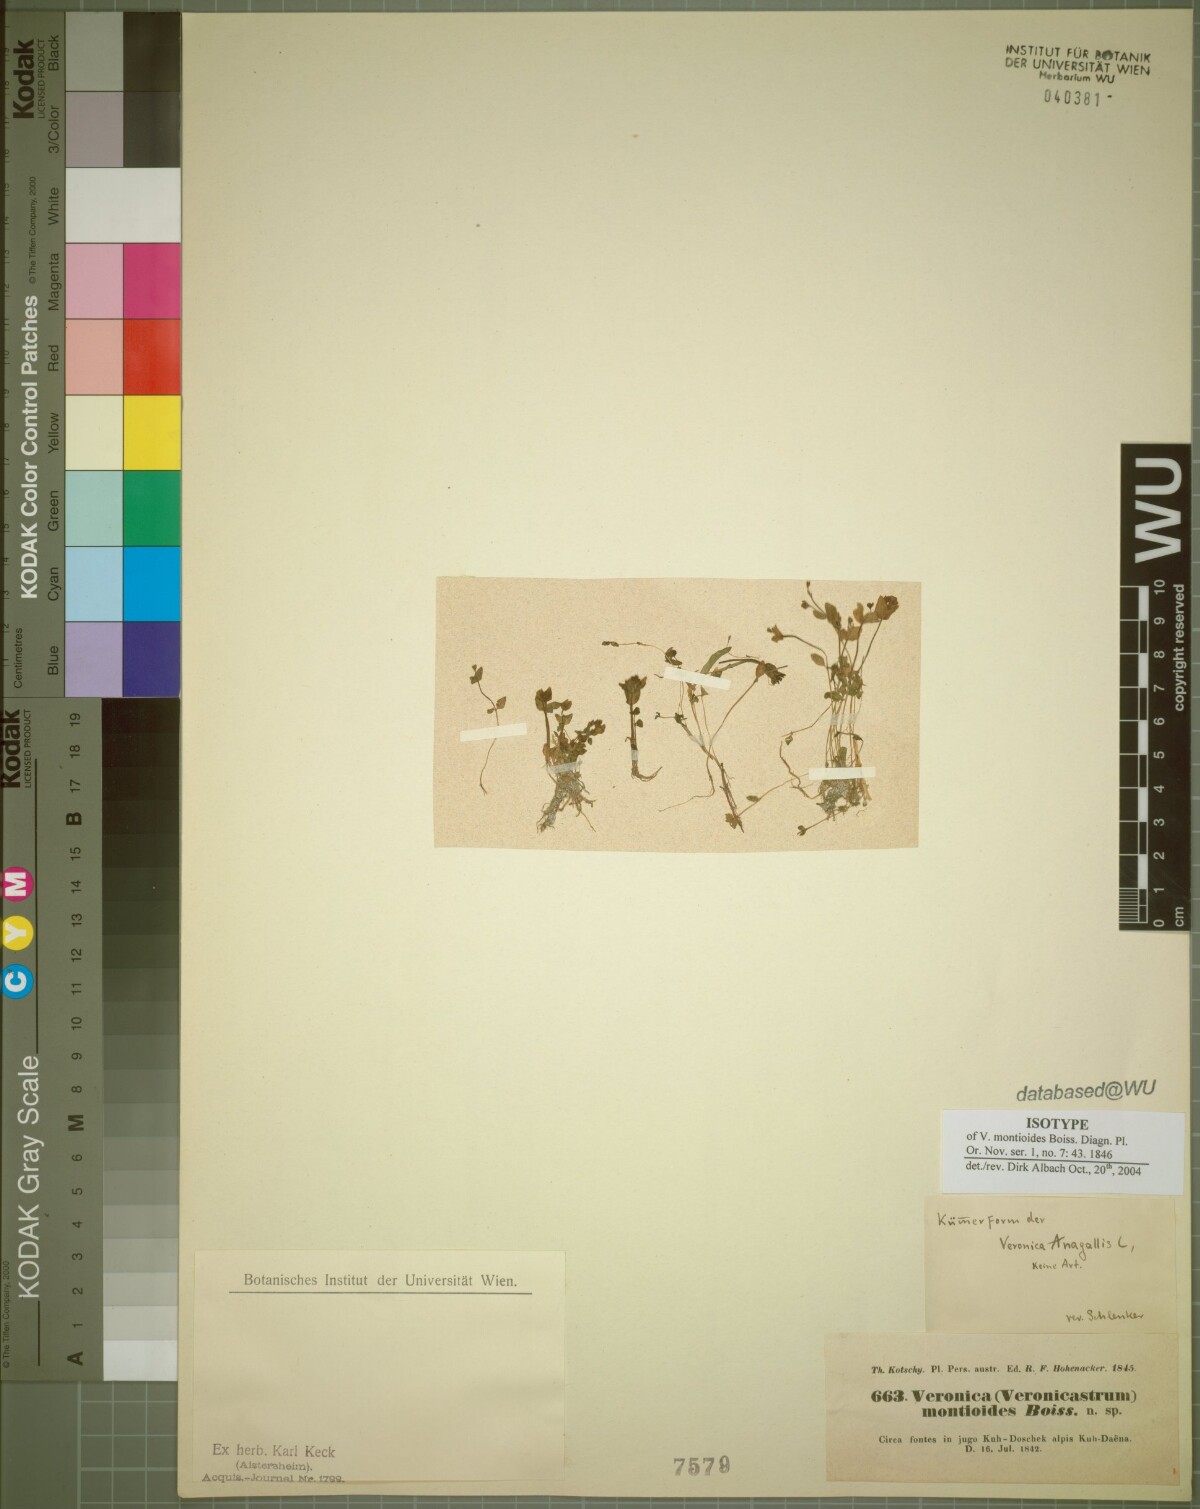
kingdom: Plantae
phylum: Tracheophyta
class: Magnoliopsida
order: Lamiales
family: Plantaginaceae
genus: Veronica
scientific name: Veronica oxycarpa
